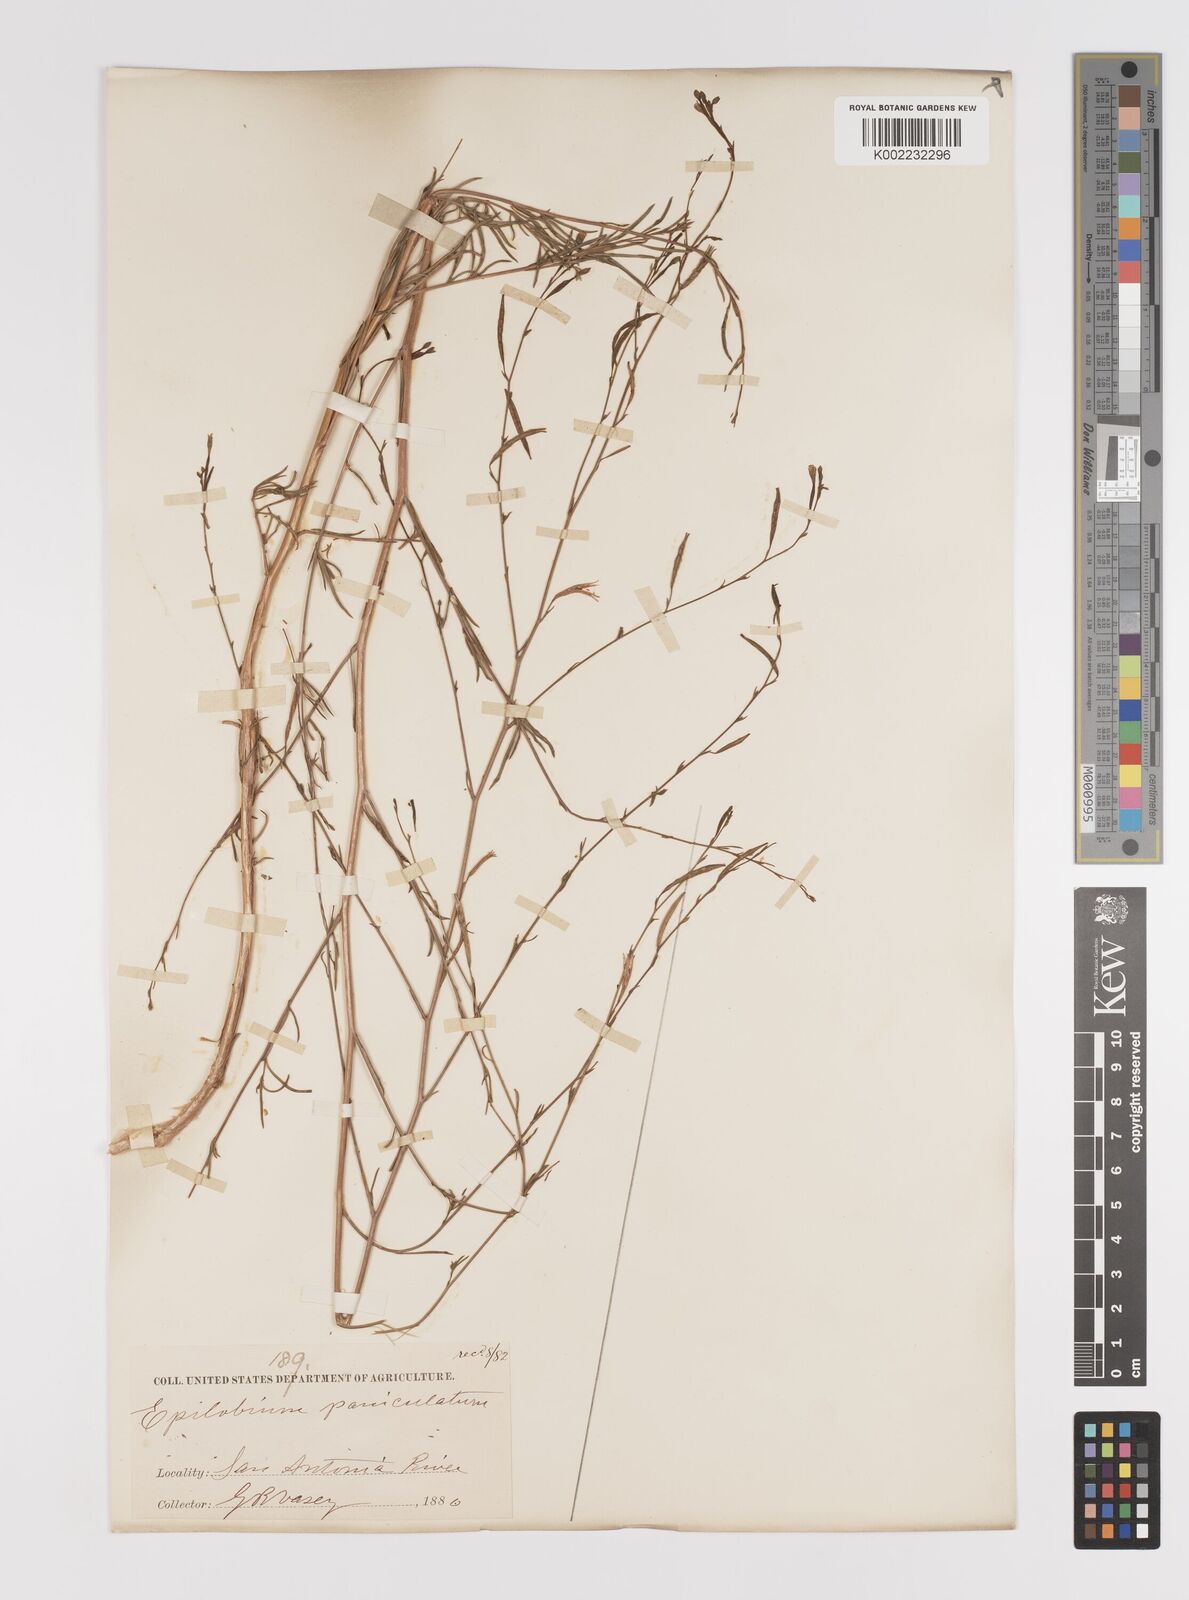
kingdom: Plantae
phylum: Tracheophyta
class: Magnoliopsida
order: Myrtales
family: Onagraceae
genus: Epilobium
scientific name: Epilobium
